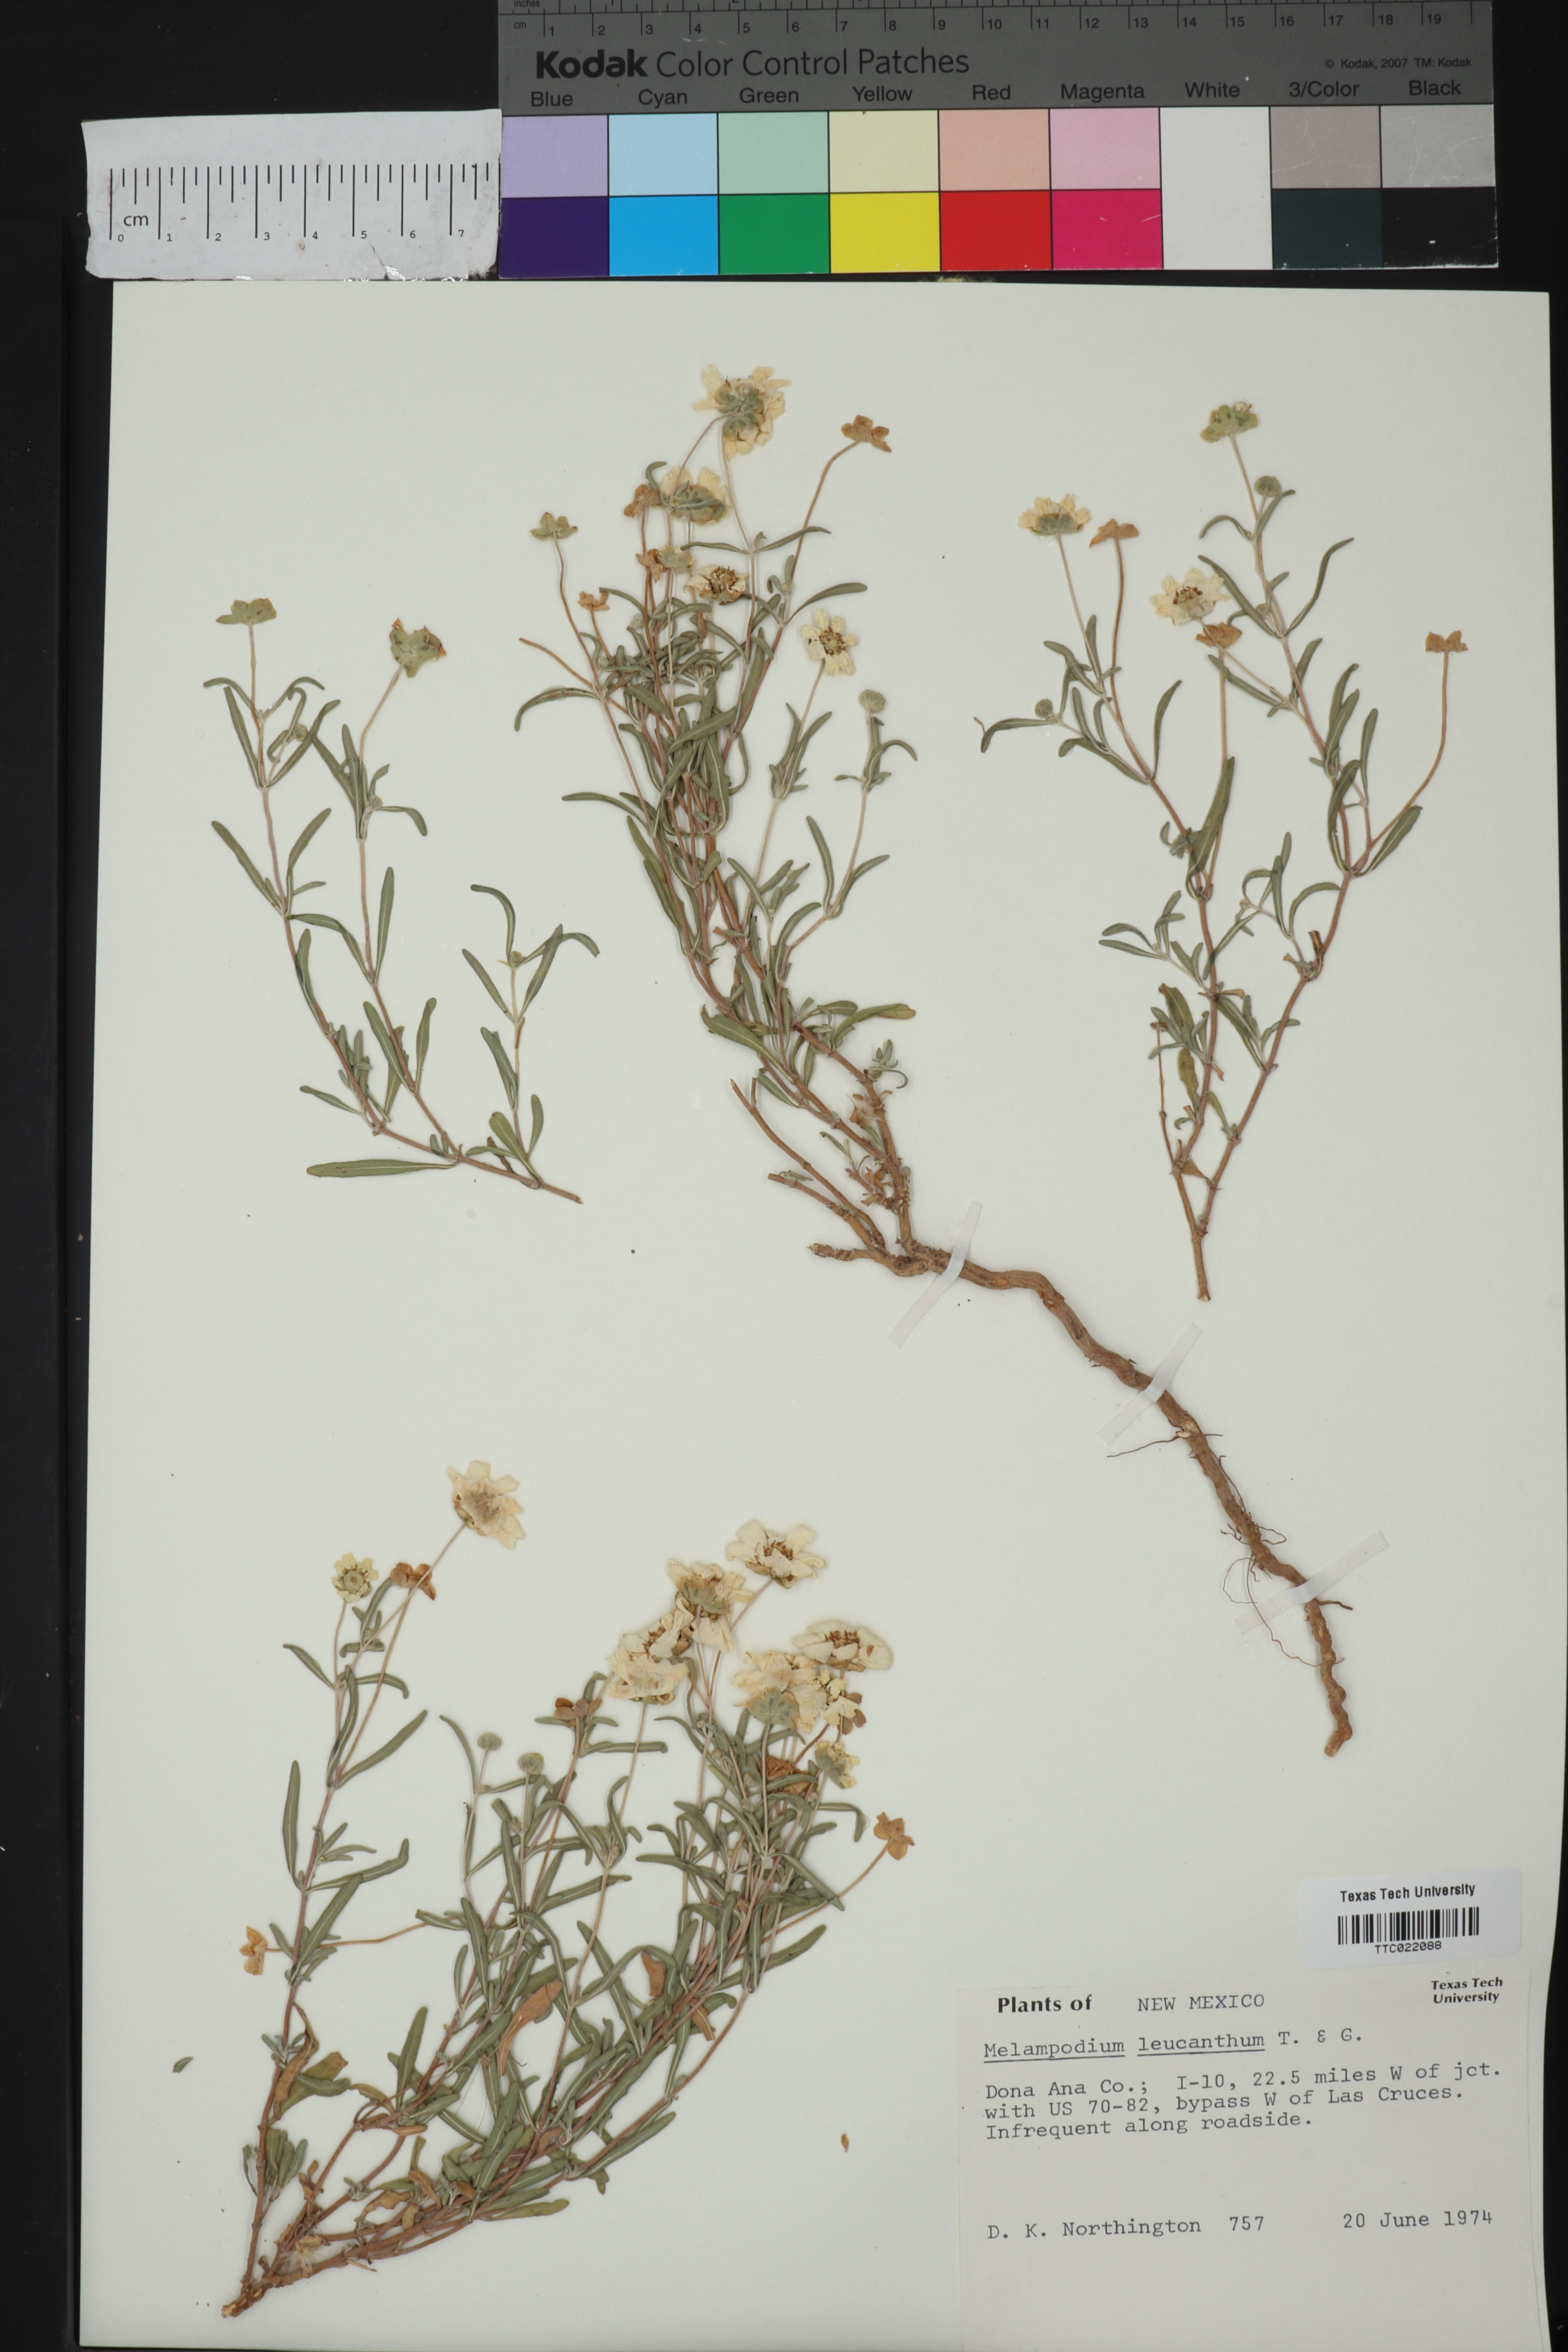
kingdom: Plantae
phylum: Tracheophyta
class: Magnoliopsida
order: Asterales
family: Asteraceae
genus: Melampodium
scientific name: Melampodium leucanthum
